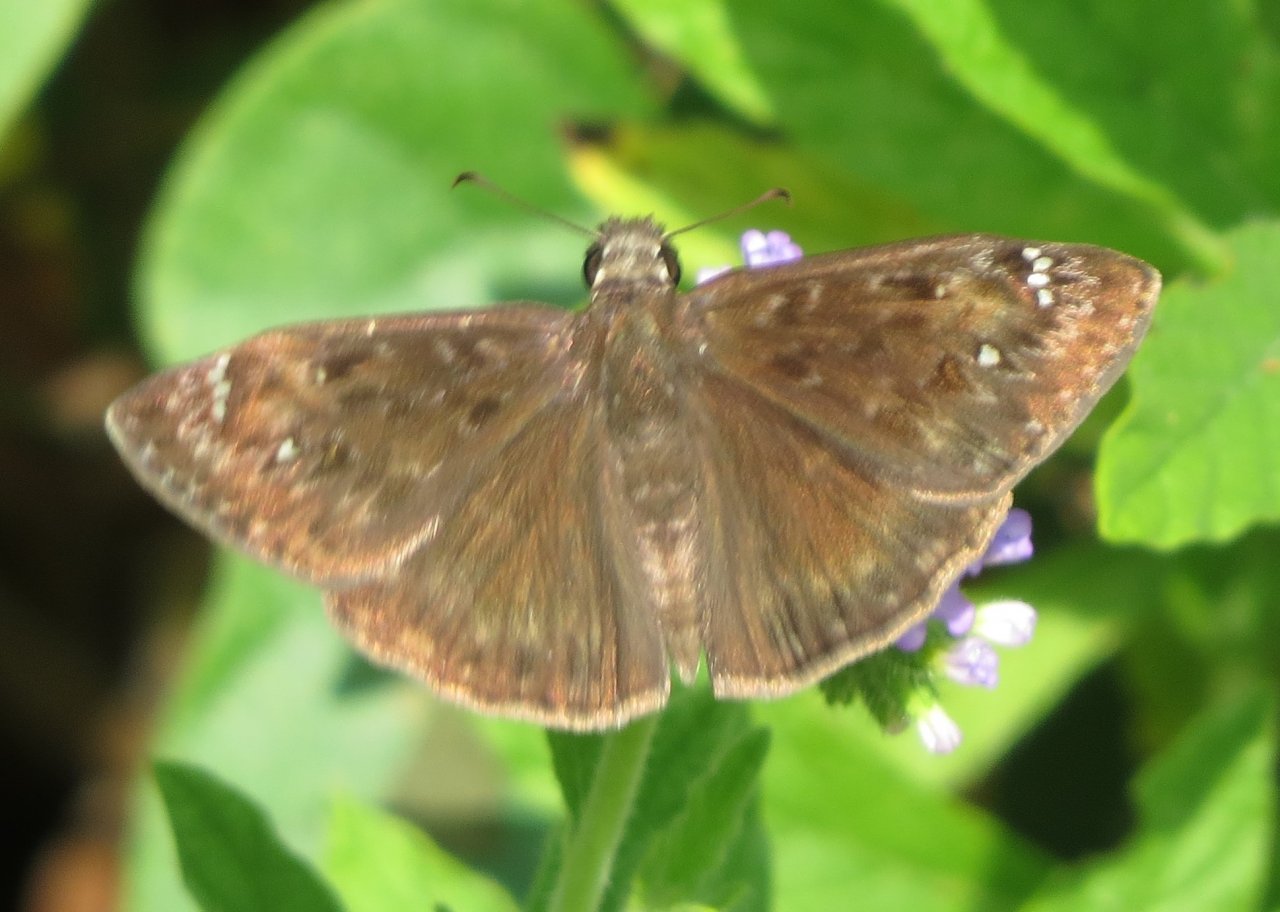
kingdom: Animalia
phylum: Arthropoda
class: Insecta
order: Lepidoptera
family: Hesperiidae
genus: Gesta
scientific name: Gesta
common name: Horace's Duskywing
